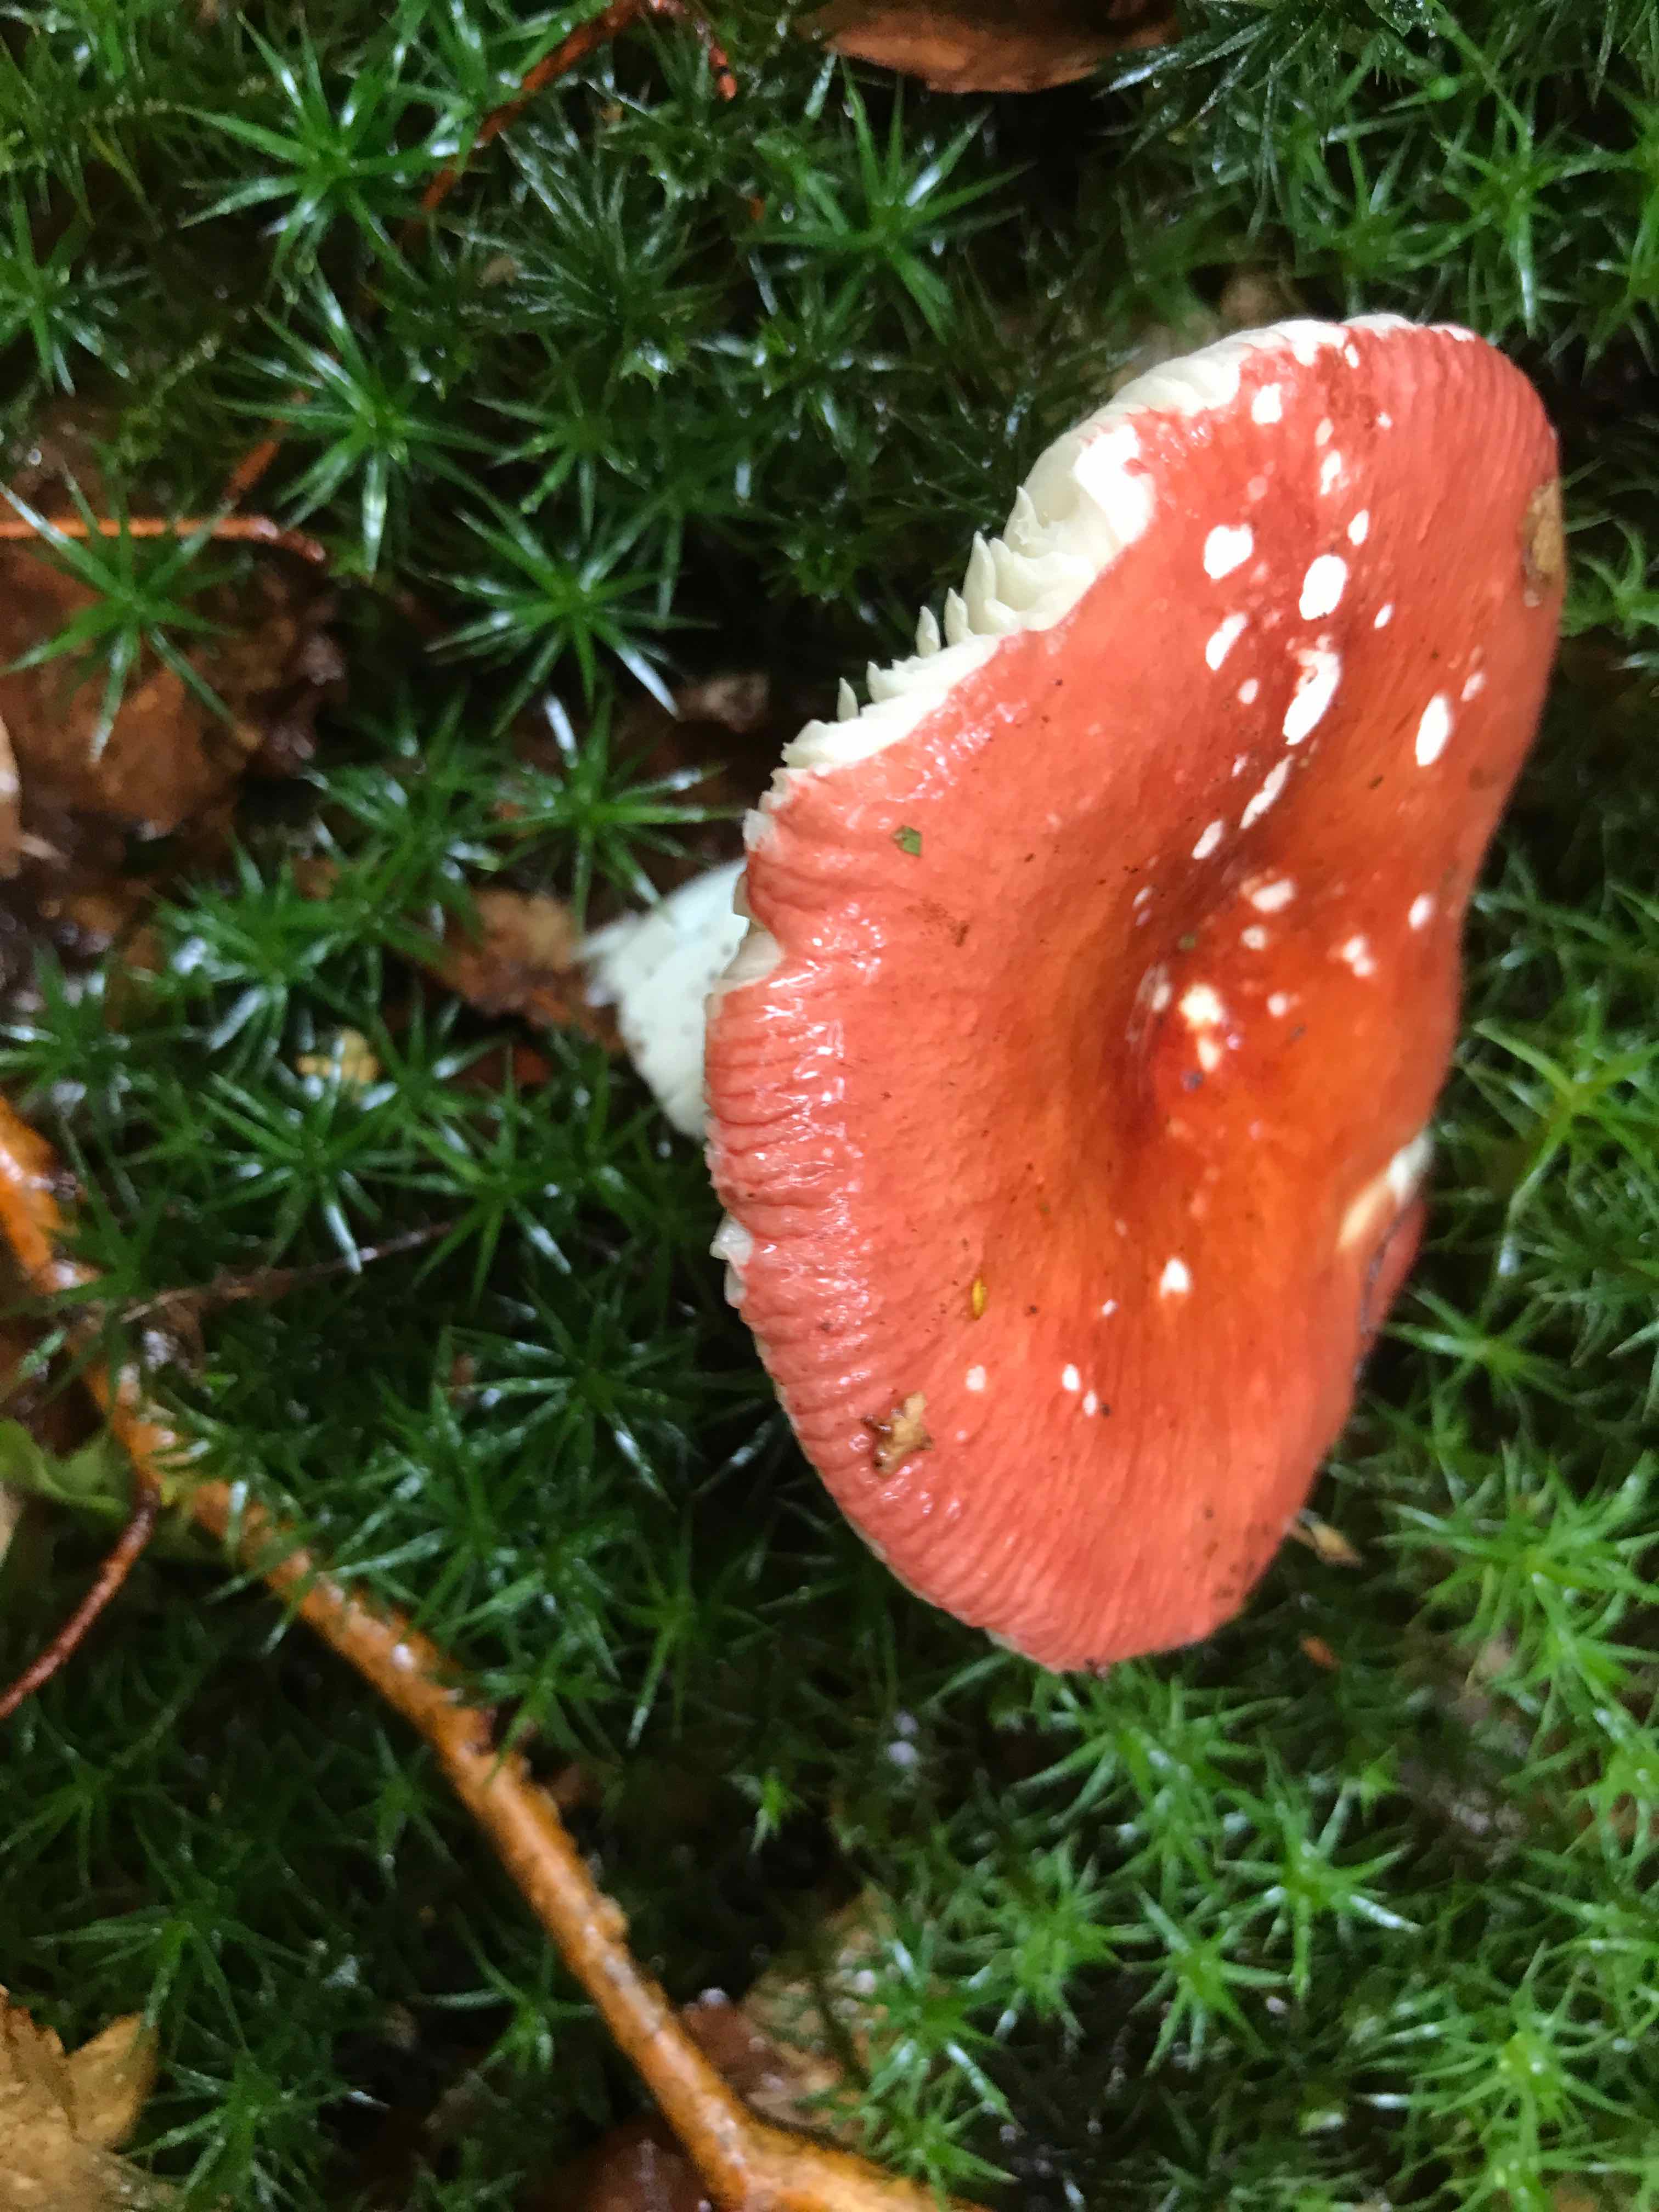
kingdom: Fungi
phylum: Basidiomycota
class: Agaricomycetes
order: Russulales
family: Russulaceae
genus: Russula
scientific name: Russula
